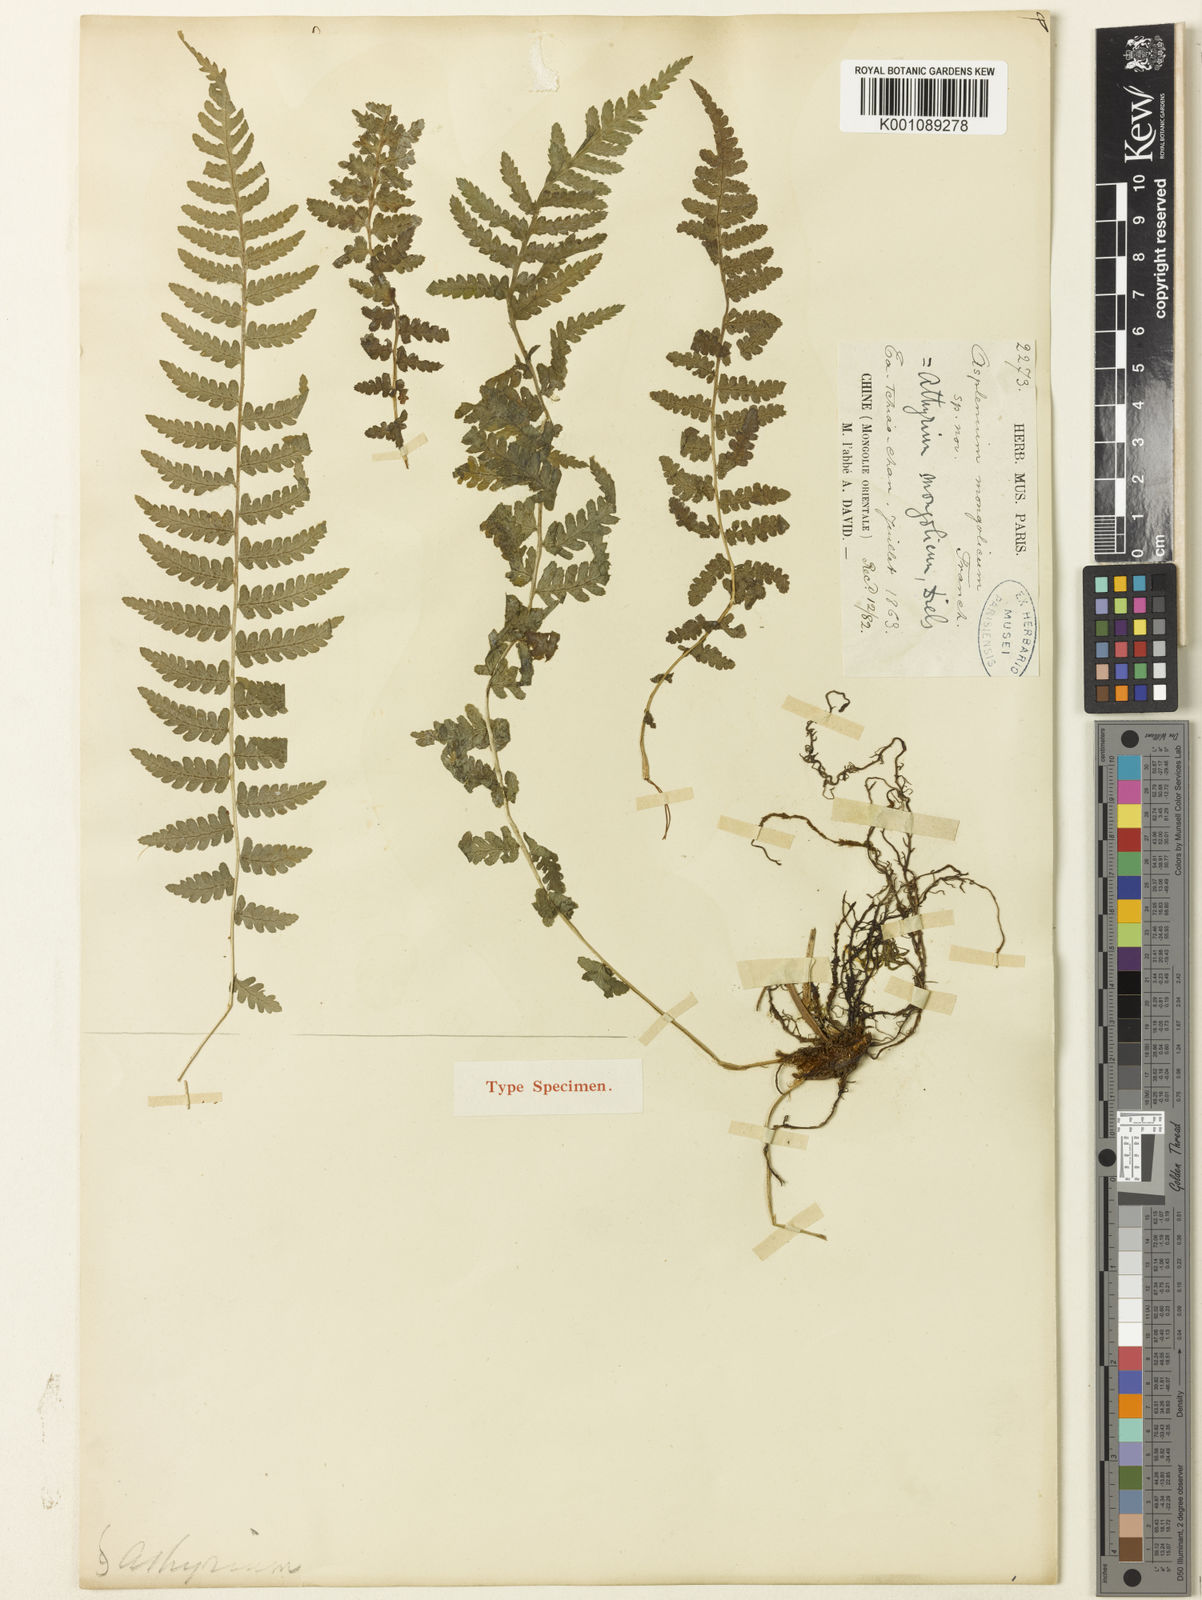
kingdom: Plantae
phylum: Tracheophyta
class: Polypodiopsida
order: Polypodiales
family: Athyriaceae
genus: Athyrium
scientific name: Athyrium fallaciosum
